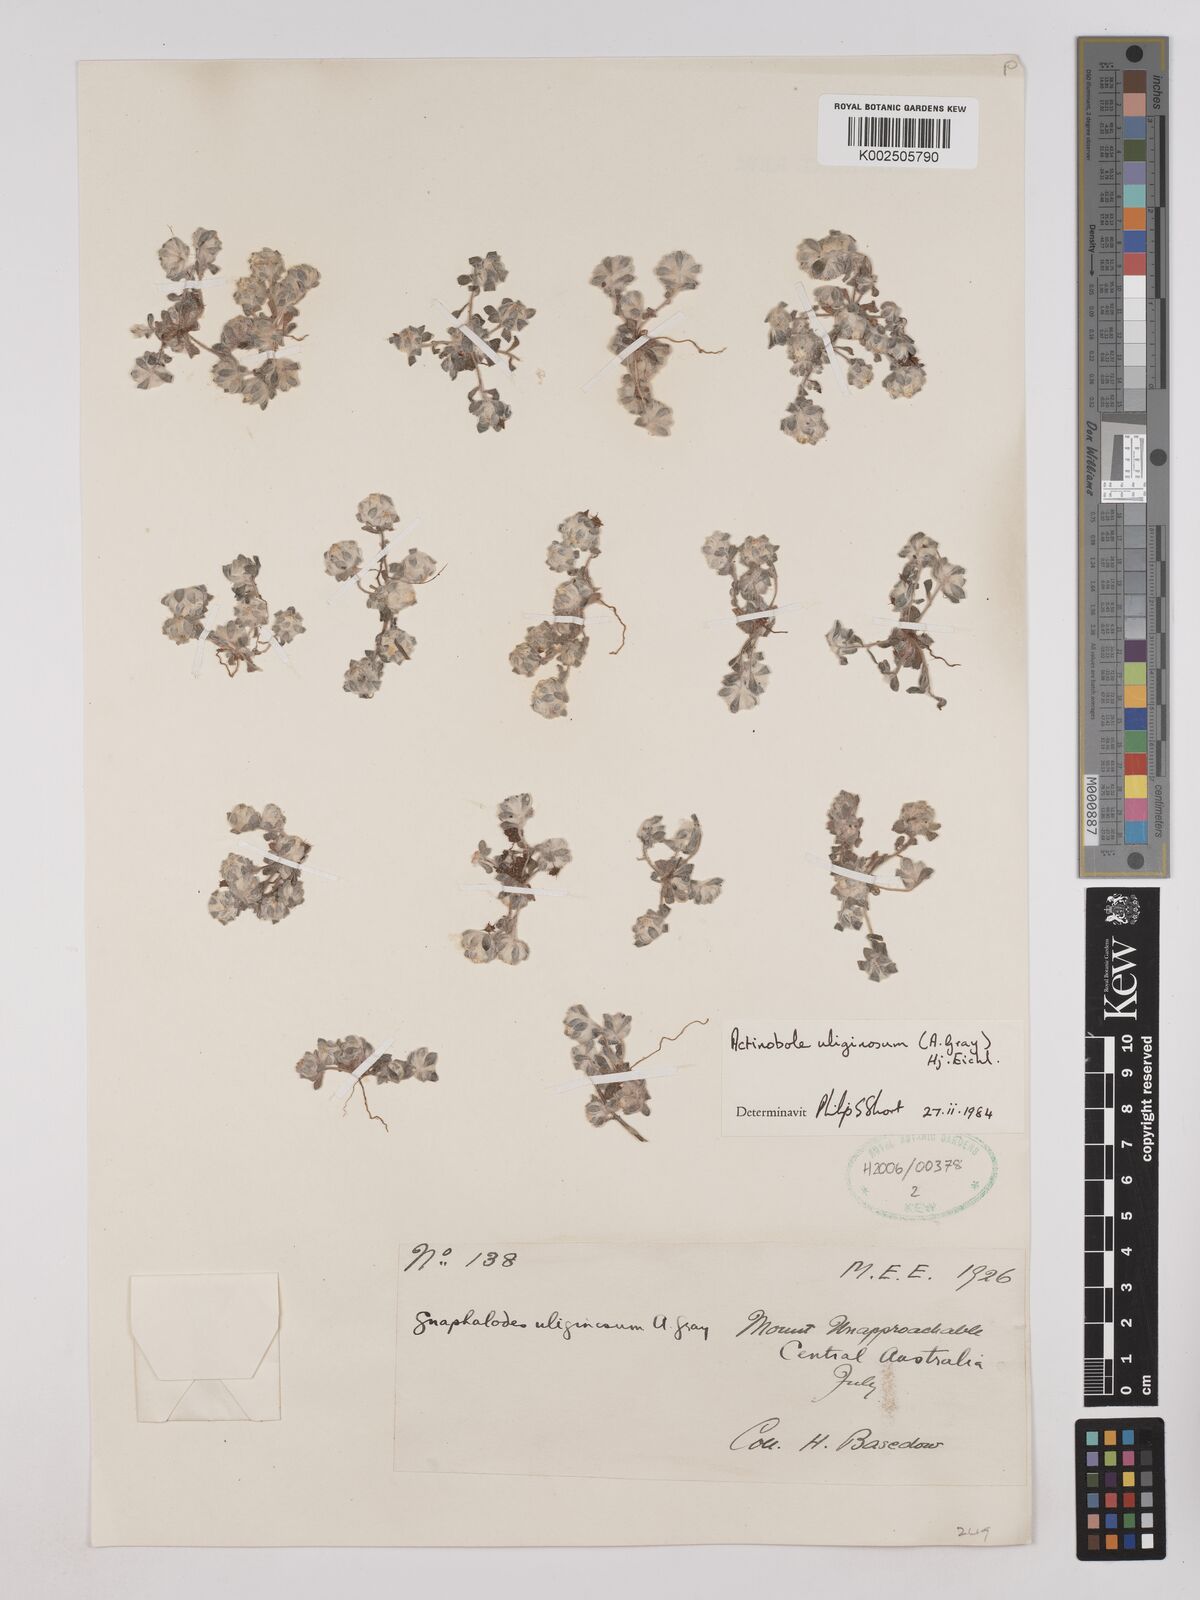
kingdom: Plantae
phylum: Tracheophyta
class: Magnoliopsida
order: Asterales
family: Asteraceae
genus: Actinobole
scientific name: Actinobole uliginosum
